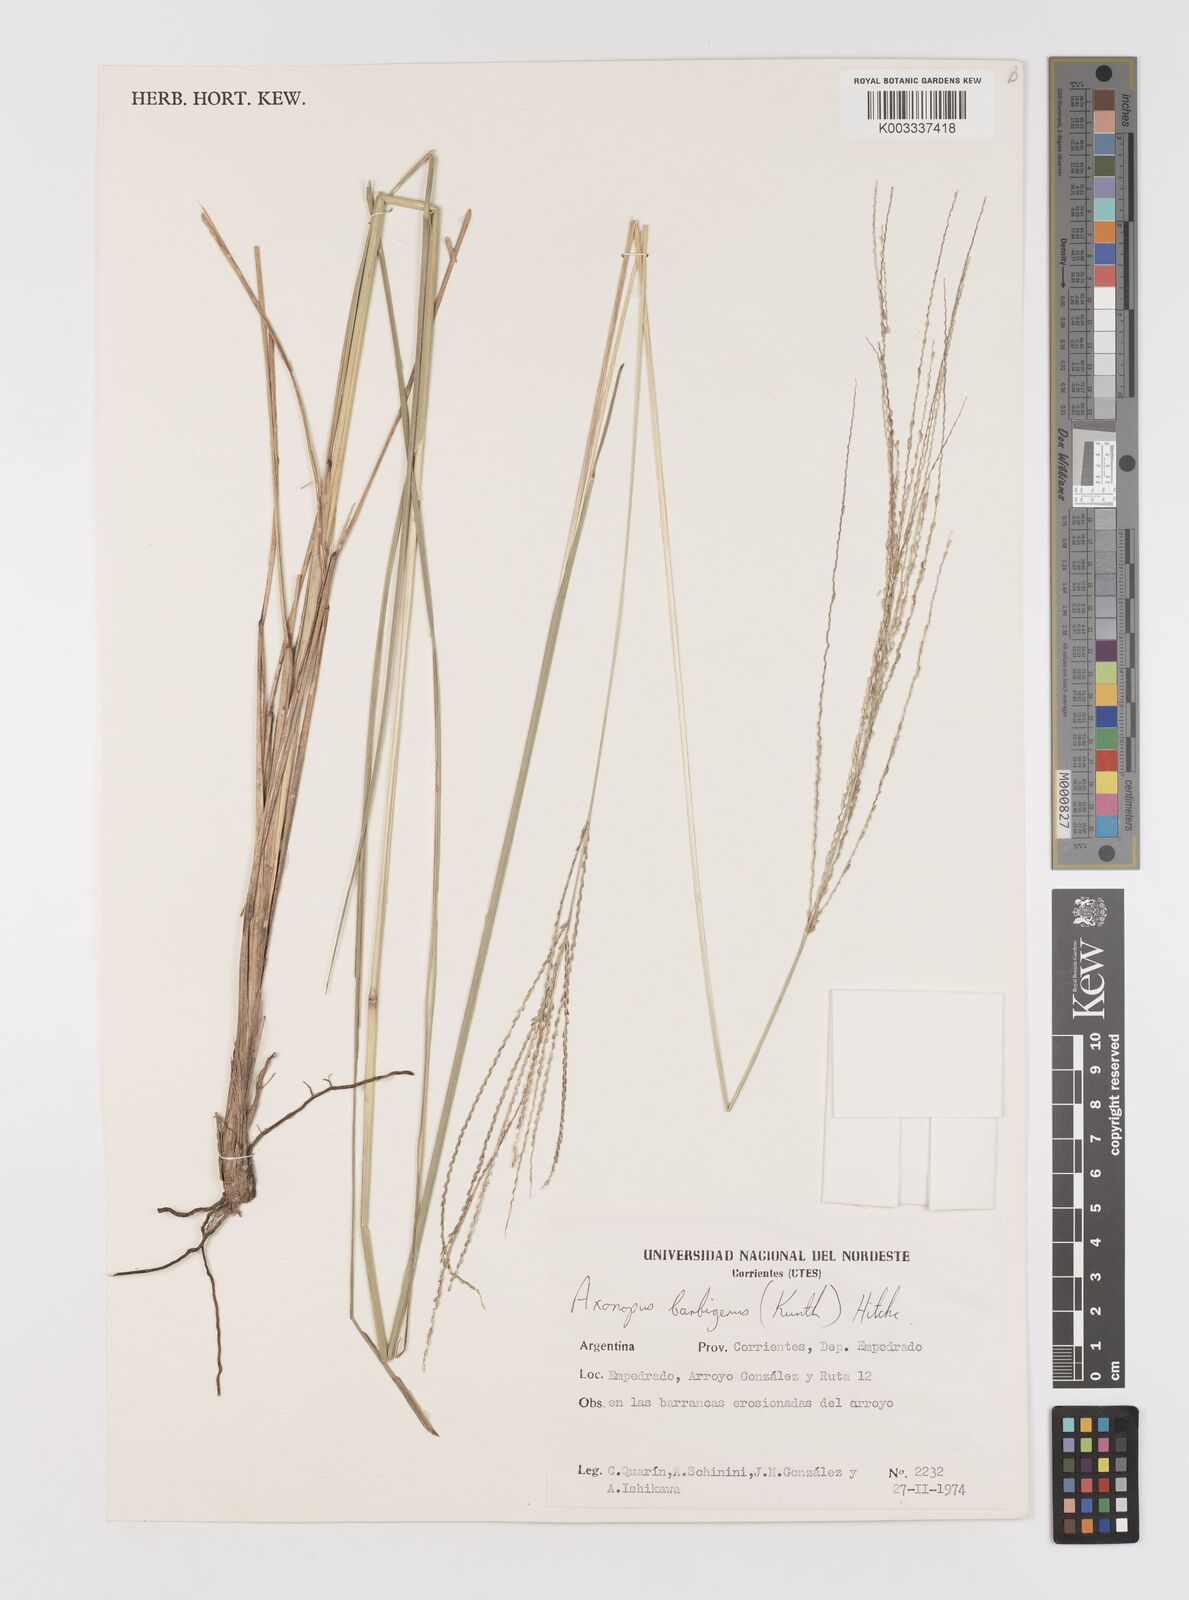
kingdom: Plantae
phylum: Tracheophyta
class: Liliopsida
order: Poales
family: Poaceae
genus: Axonopus
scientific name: Axonopus siccus
